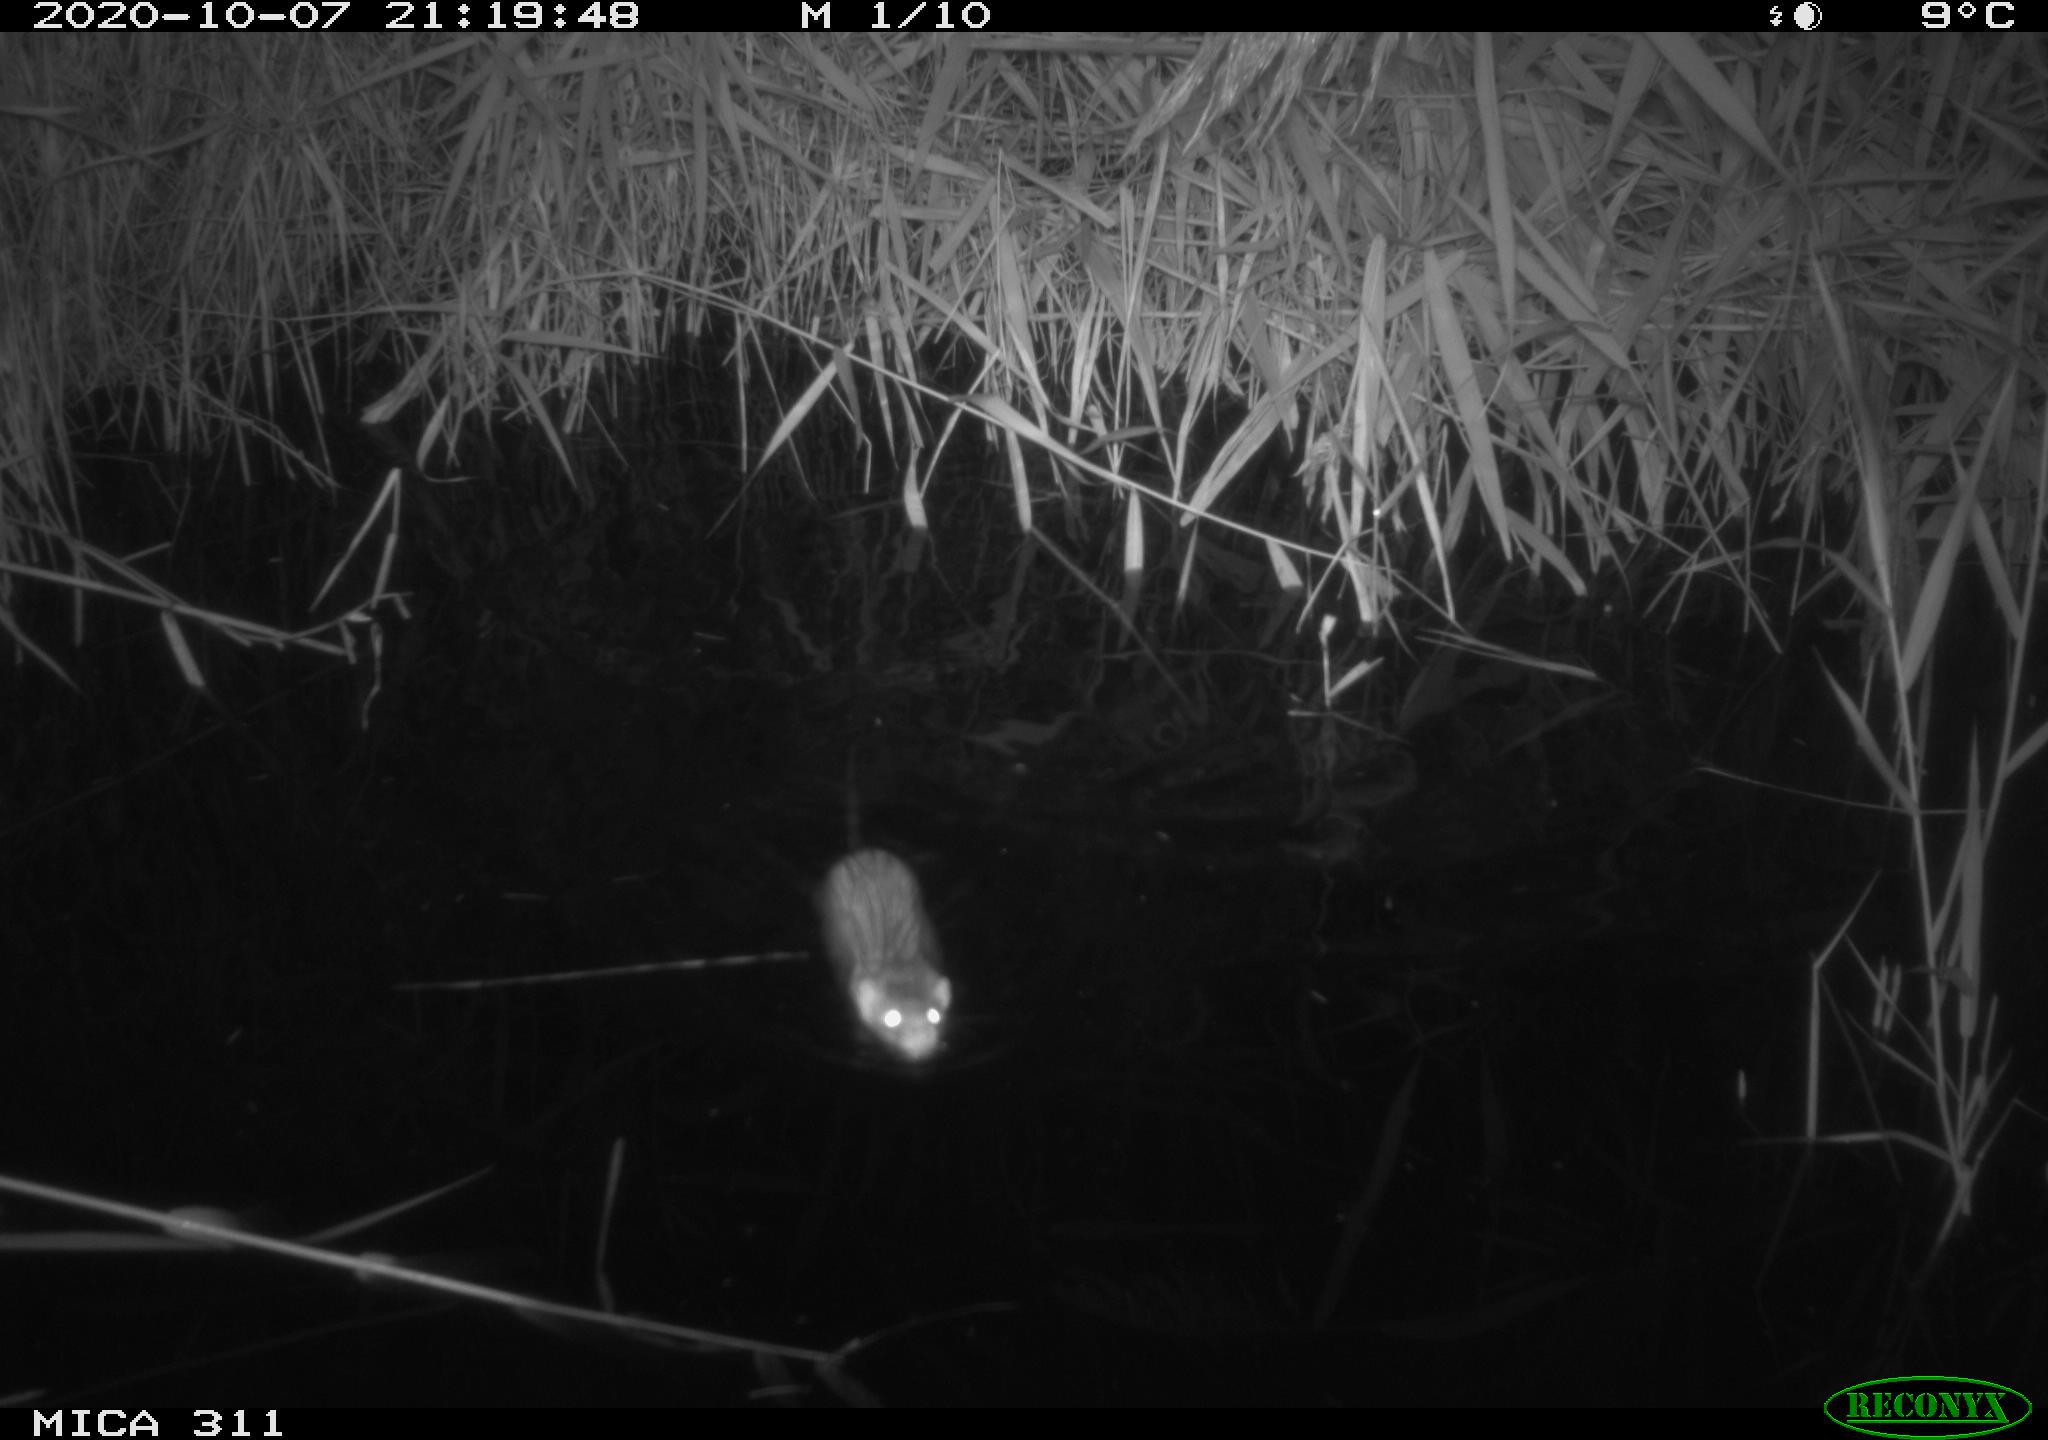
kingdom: Animalia
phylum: Chordata
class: Mammalia
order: Rodentia
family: Muridae
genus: Rattus
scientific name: Rattus norvegicus
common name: Brown rat
